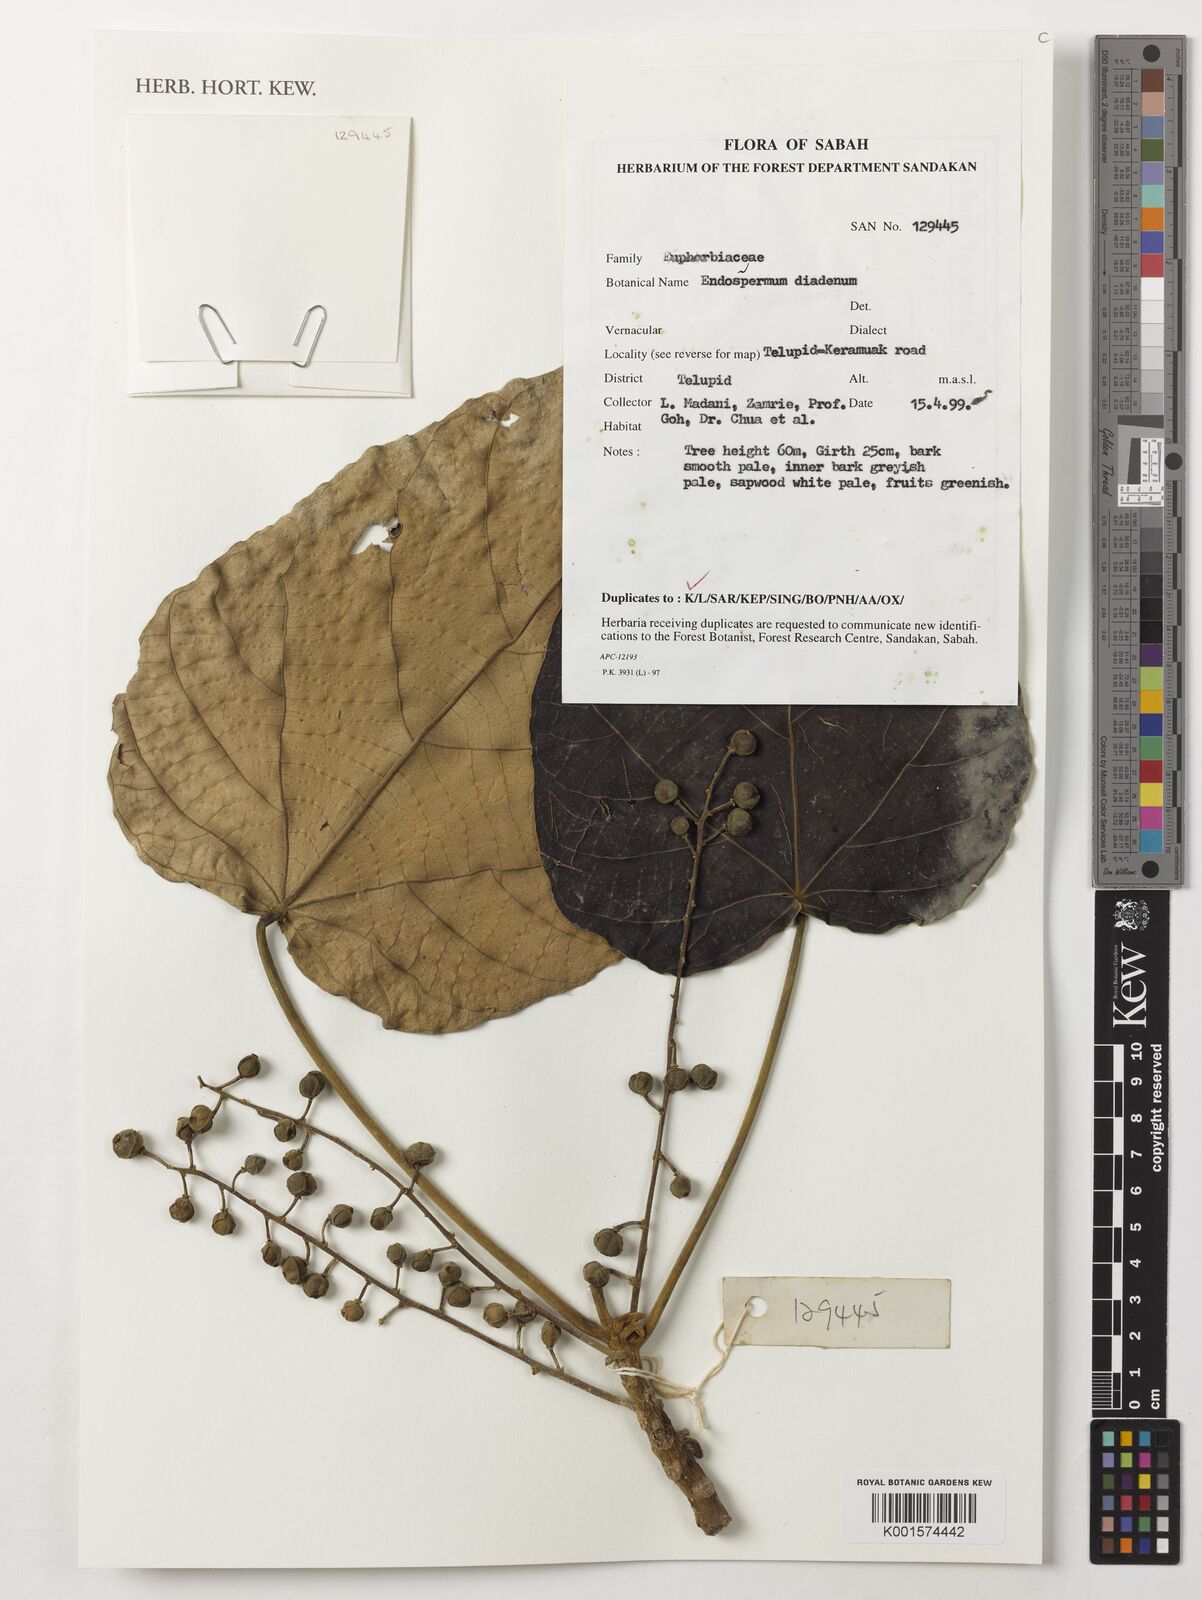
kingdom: Plantae
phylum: Tracheophyta
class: Magnoliopsida
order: Malpighiales
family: Euphorbiaceae
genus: Endospermum
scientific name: Endospermum diadenum
